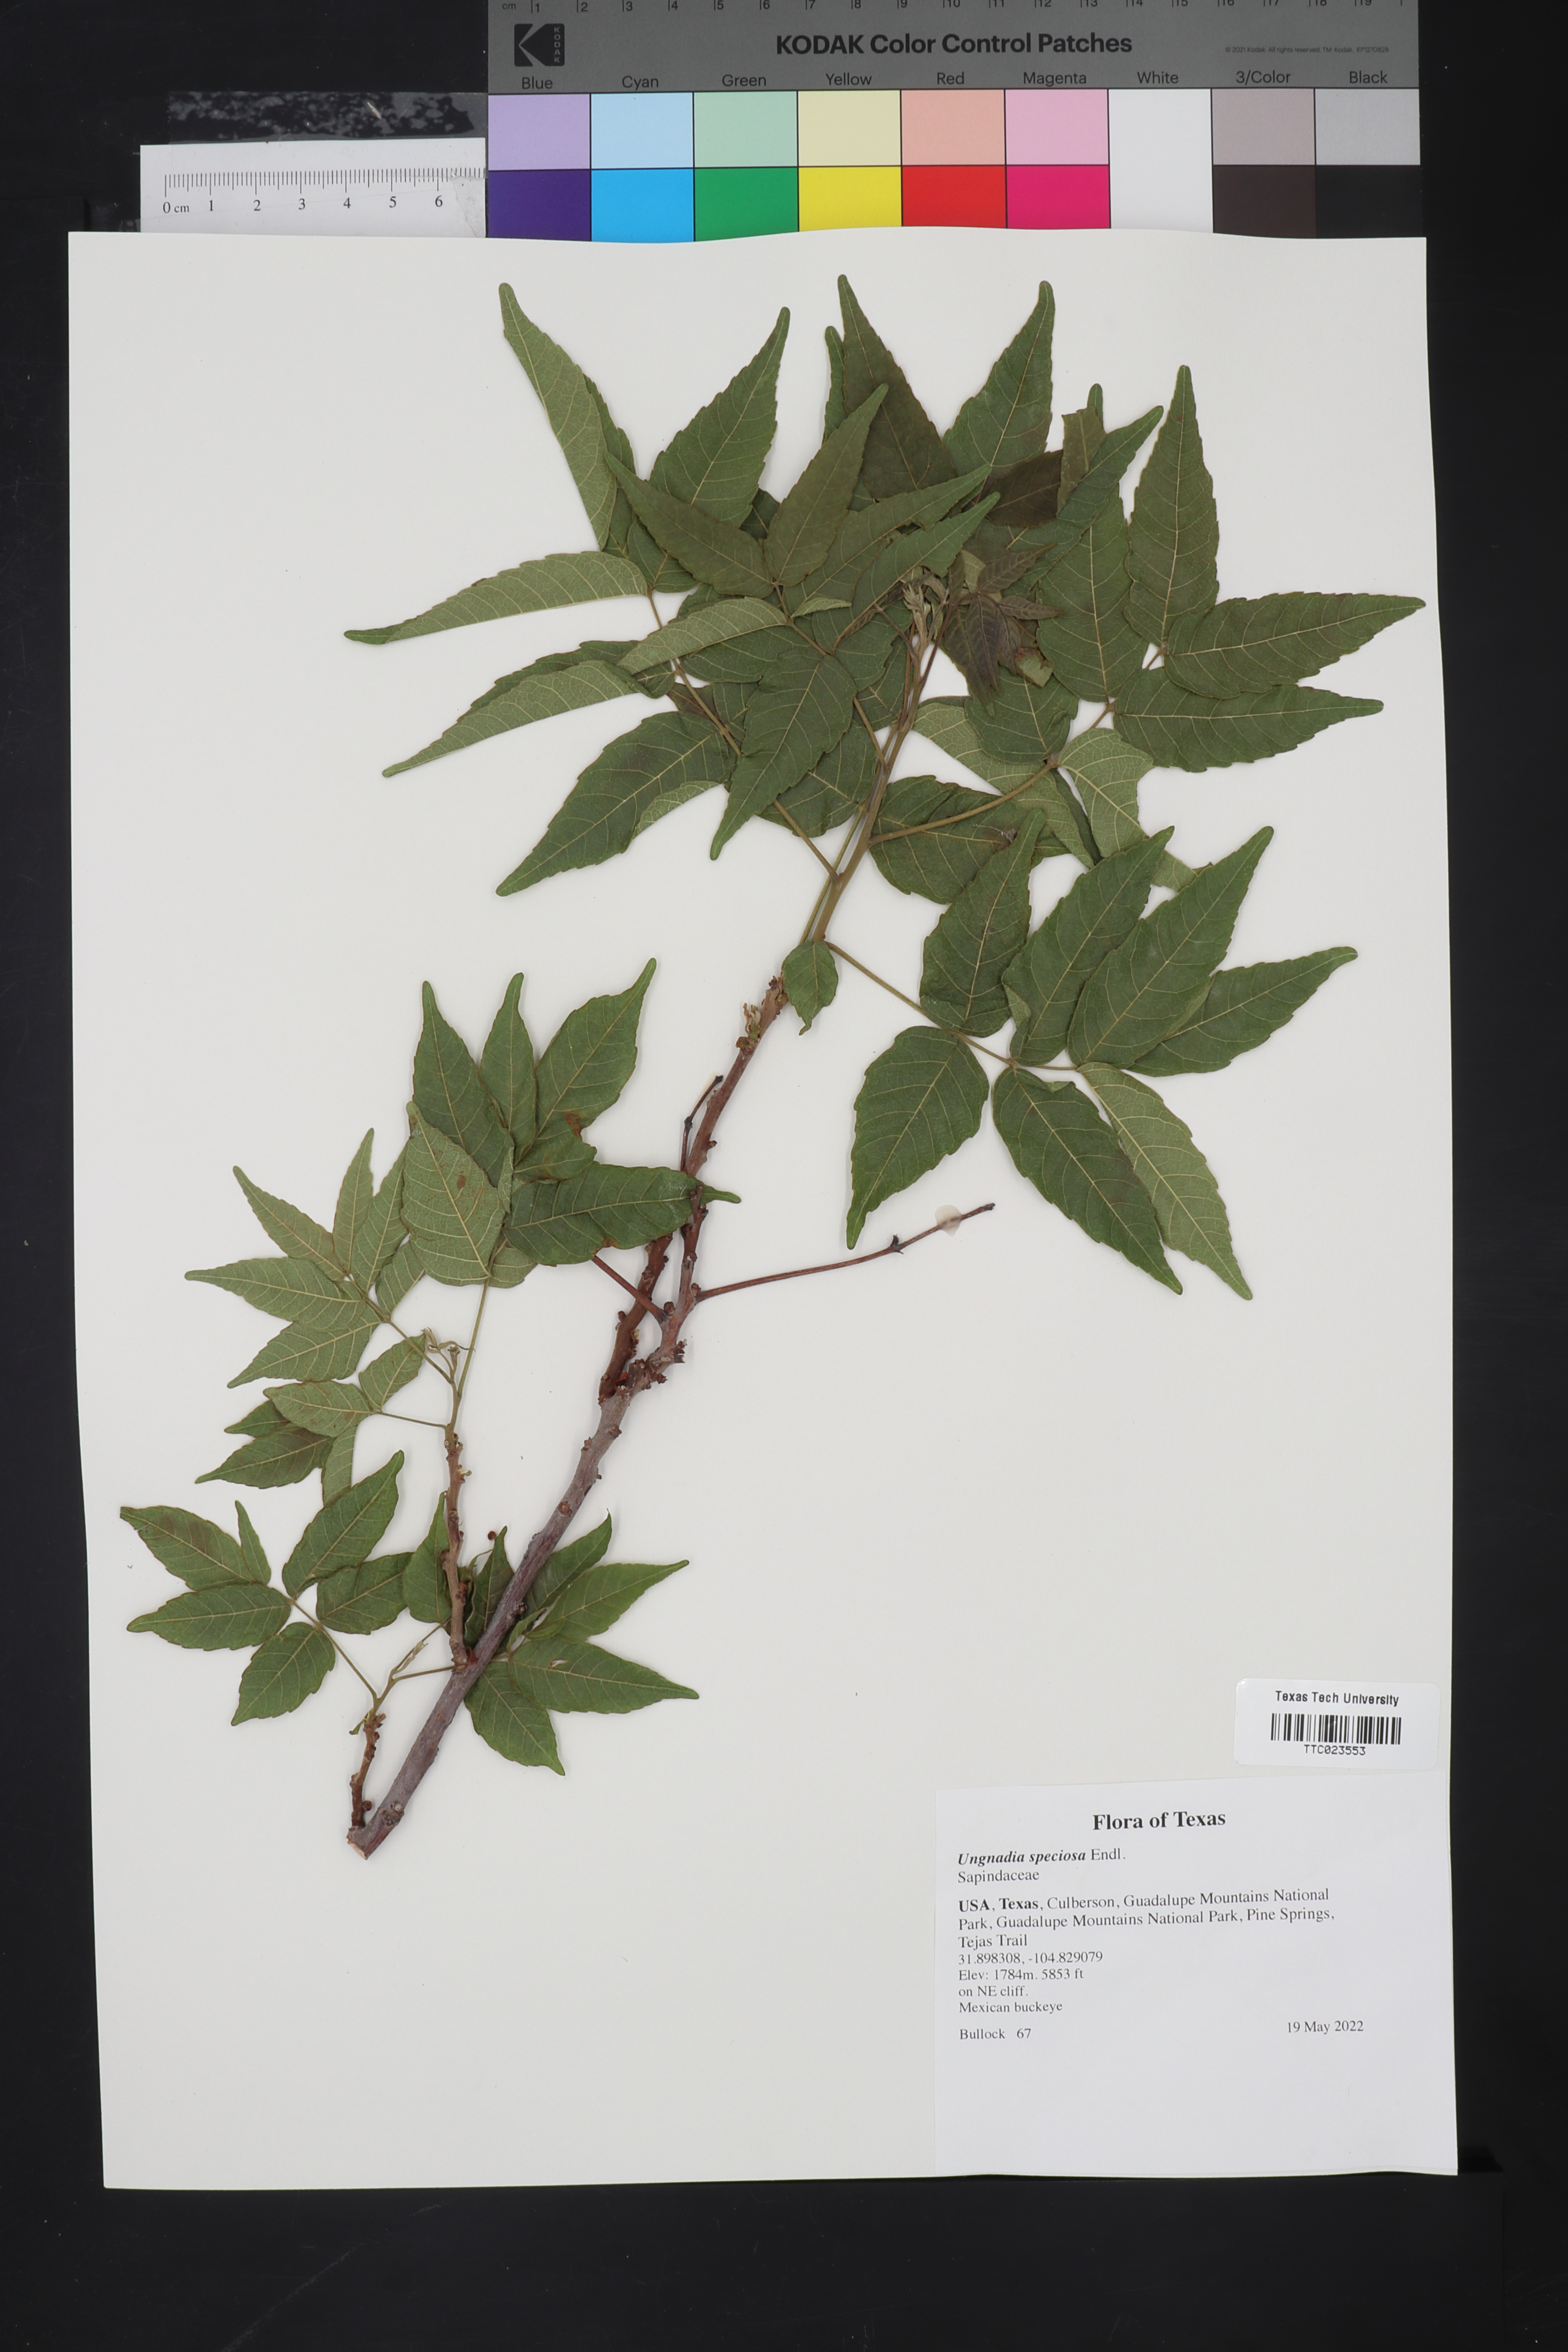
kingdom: Plantae
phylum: Tracheophyta
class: Magnoliopsida
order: Sapindales
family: Sapindaceae
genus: Ungnadia
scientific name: Ungnadia speciosa
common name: Texas-buckeye
